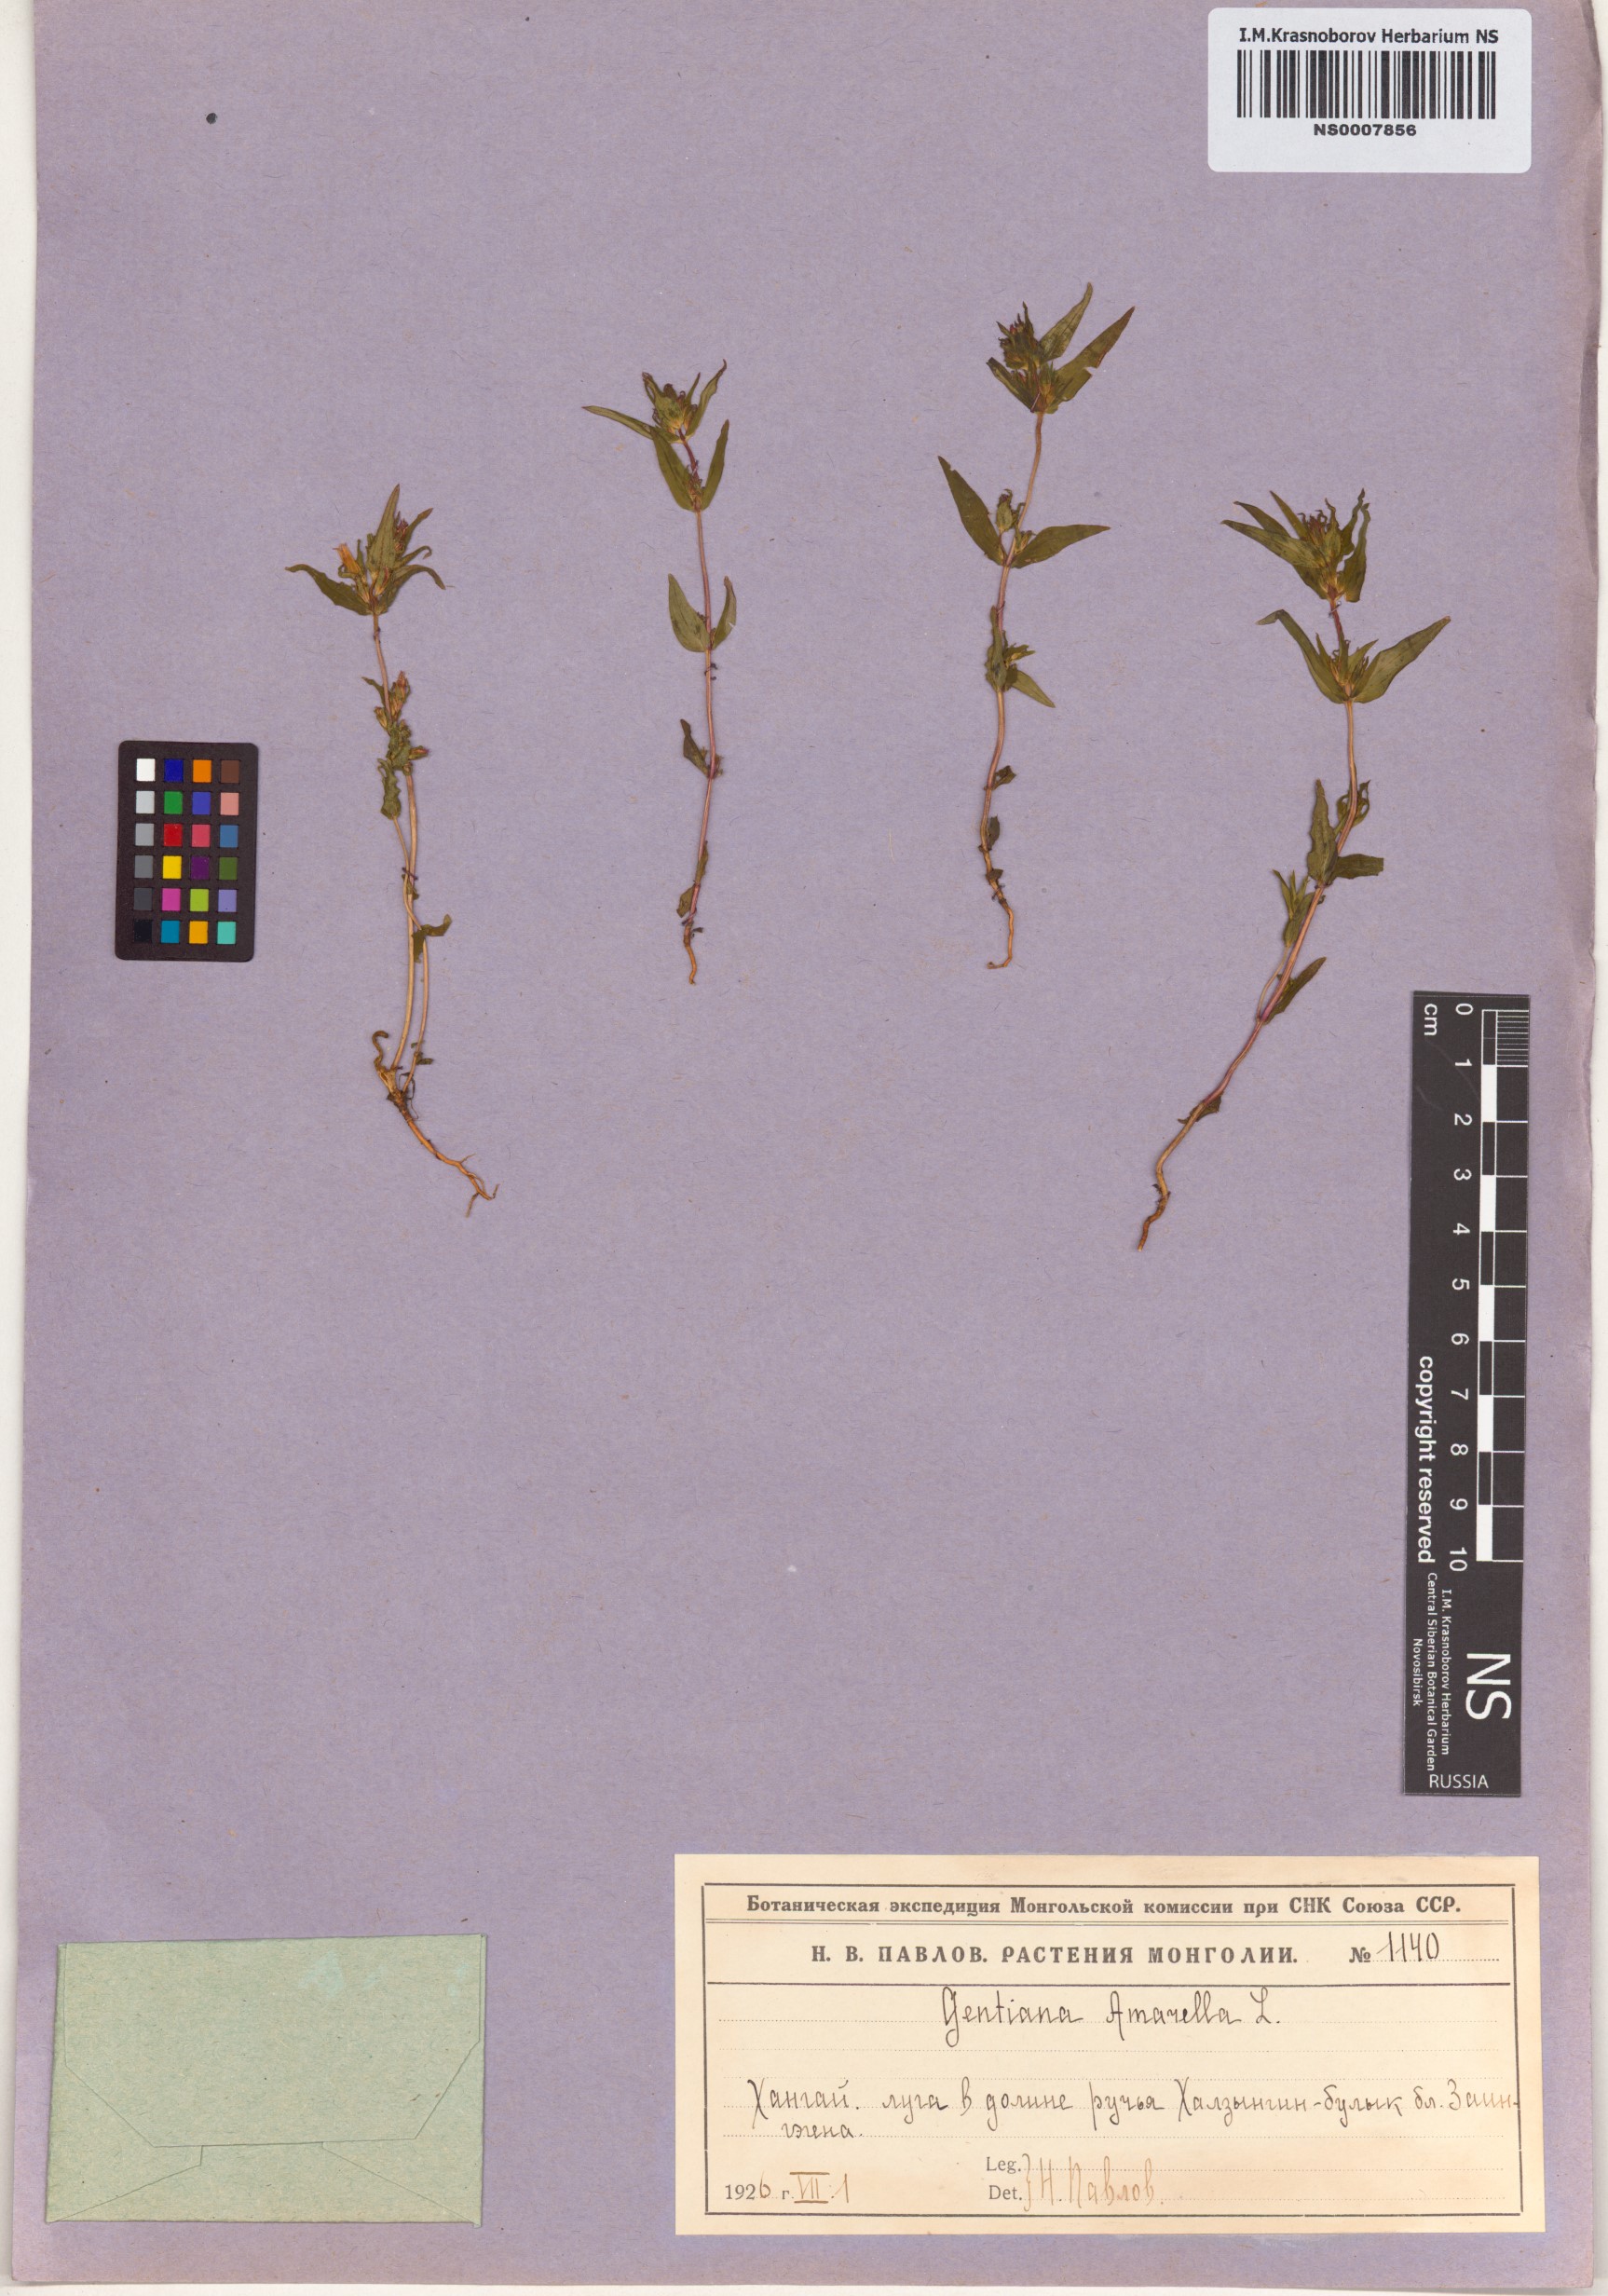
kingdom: Plantae
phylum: Tracheophyta
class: Magnoliopsida
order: Gentianales
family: Gentianaceae
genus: Gentianella
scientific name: Gentianella amarella
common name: Autumn gentian
